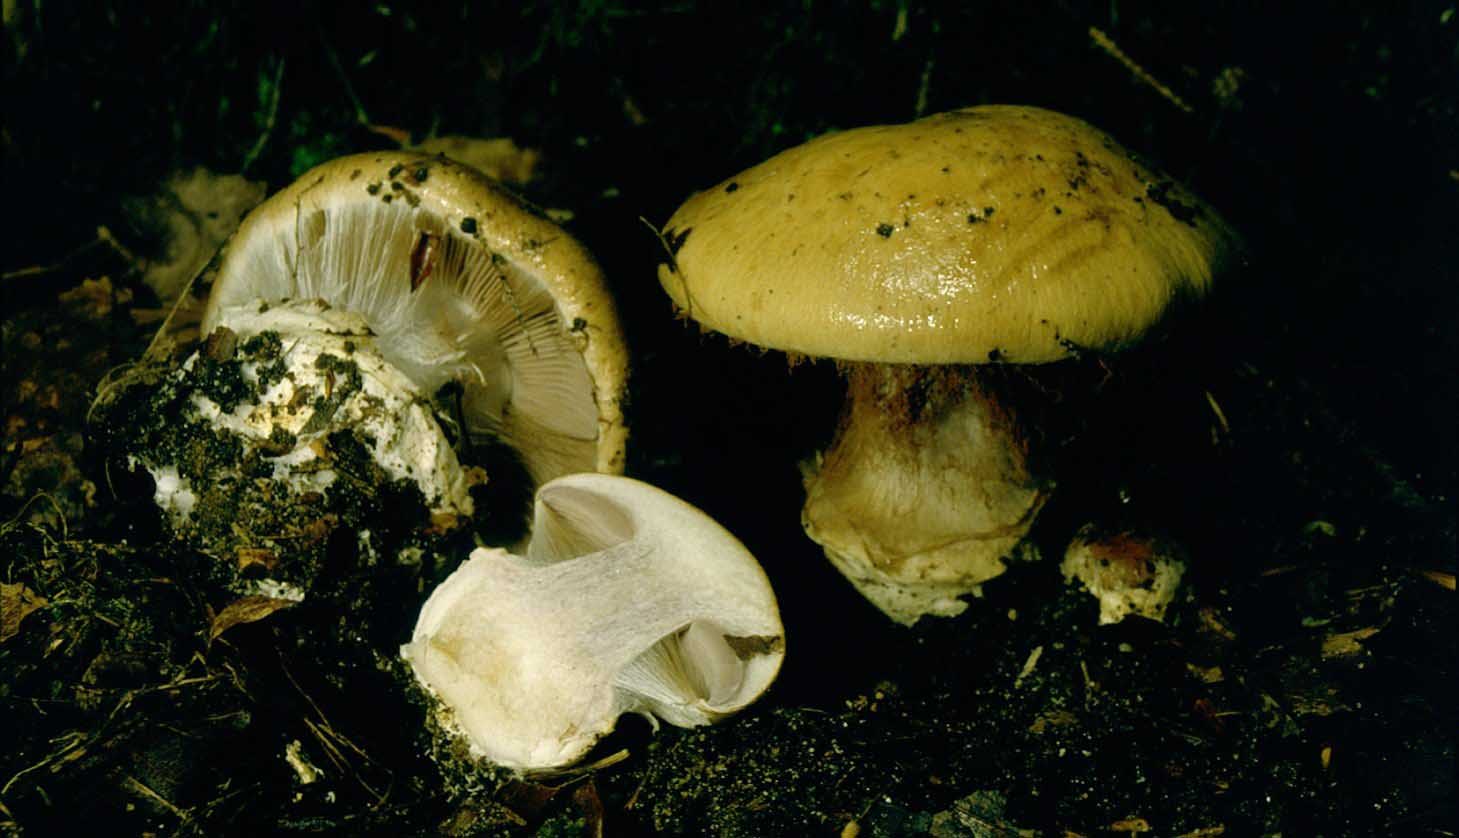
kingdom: Fungi
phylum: Basidiomycota
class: Agaricomycetes
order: Agaricales
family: Cortinariaceae
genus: Cortinarius
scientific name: Cortinarius anserinus
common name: bøge-slørhat
